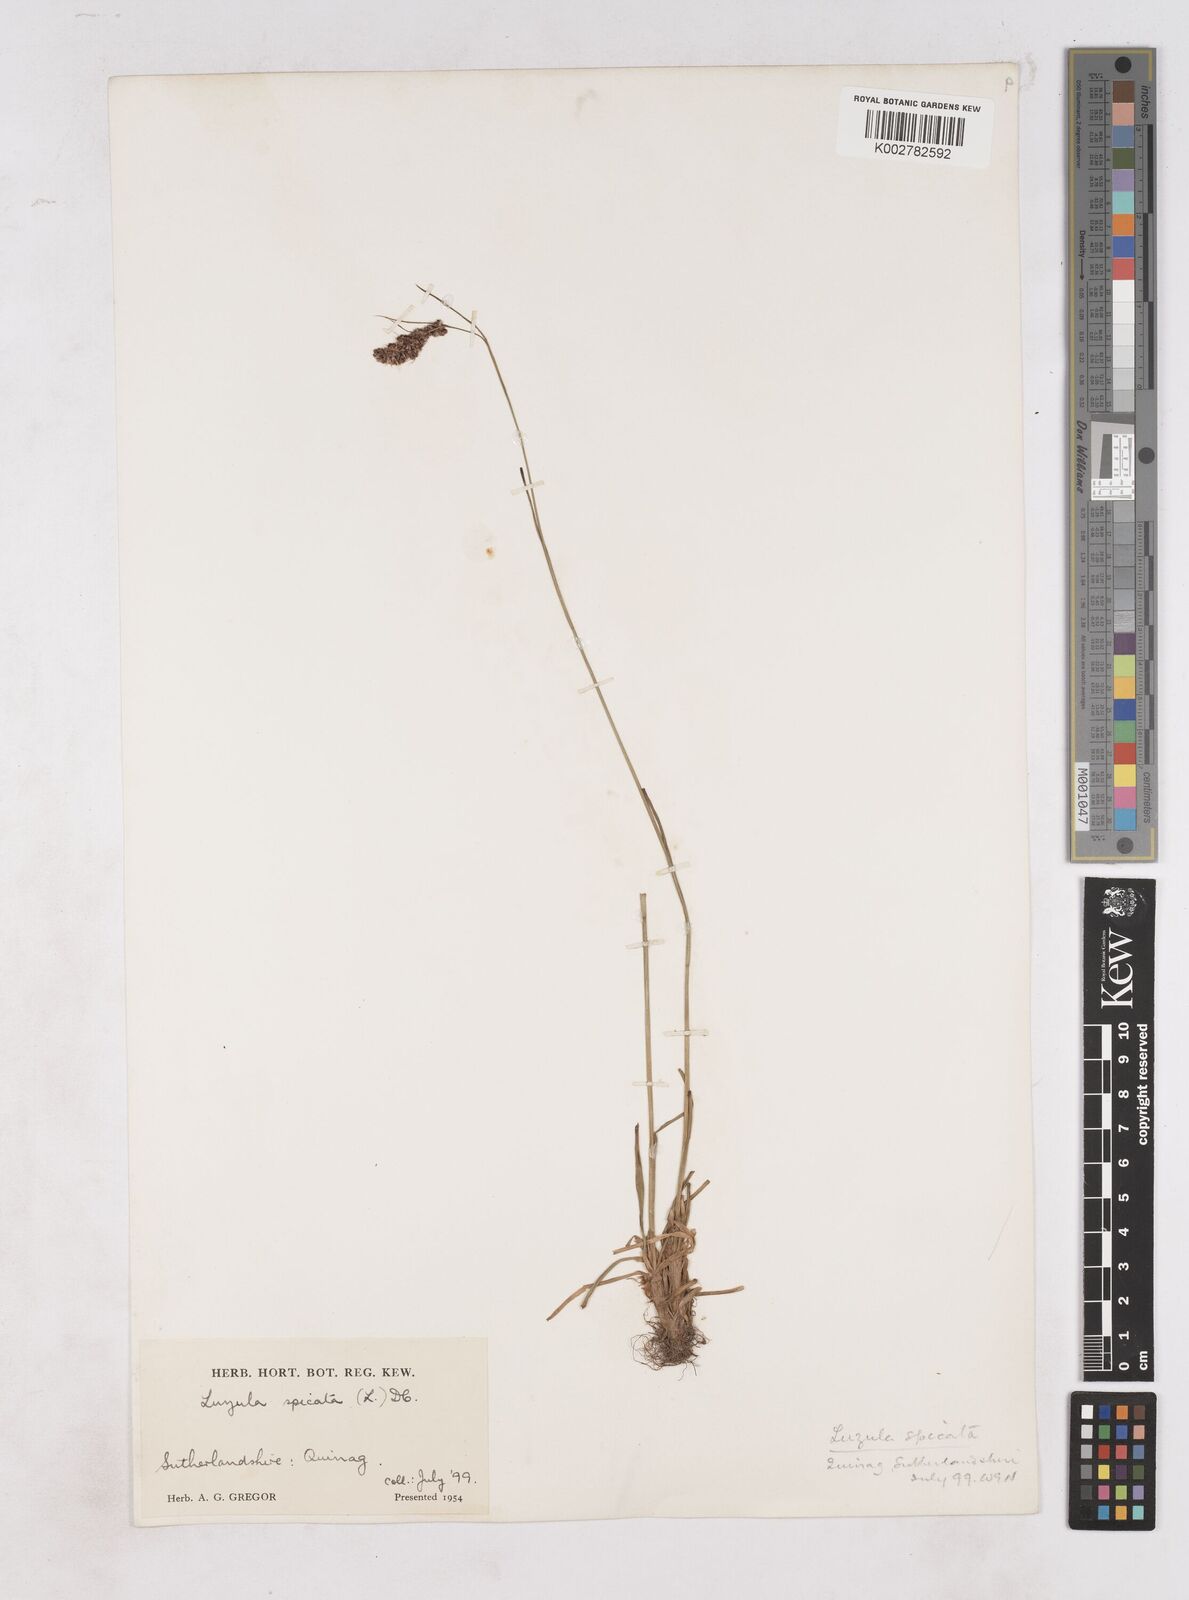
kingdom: Plantae
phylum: Tracheophyta
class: Liliopsida
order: Poales
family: Juncaceae
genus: Luzula
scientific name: Luzula spicata
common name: Spiked wood-rush
